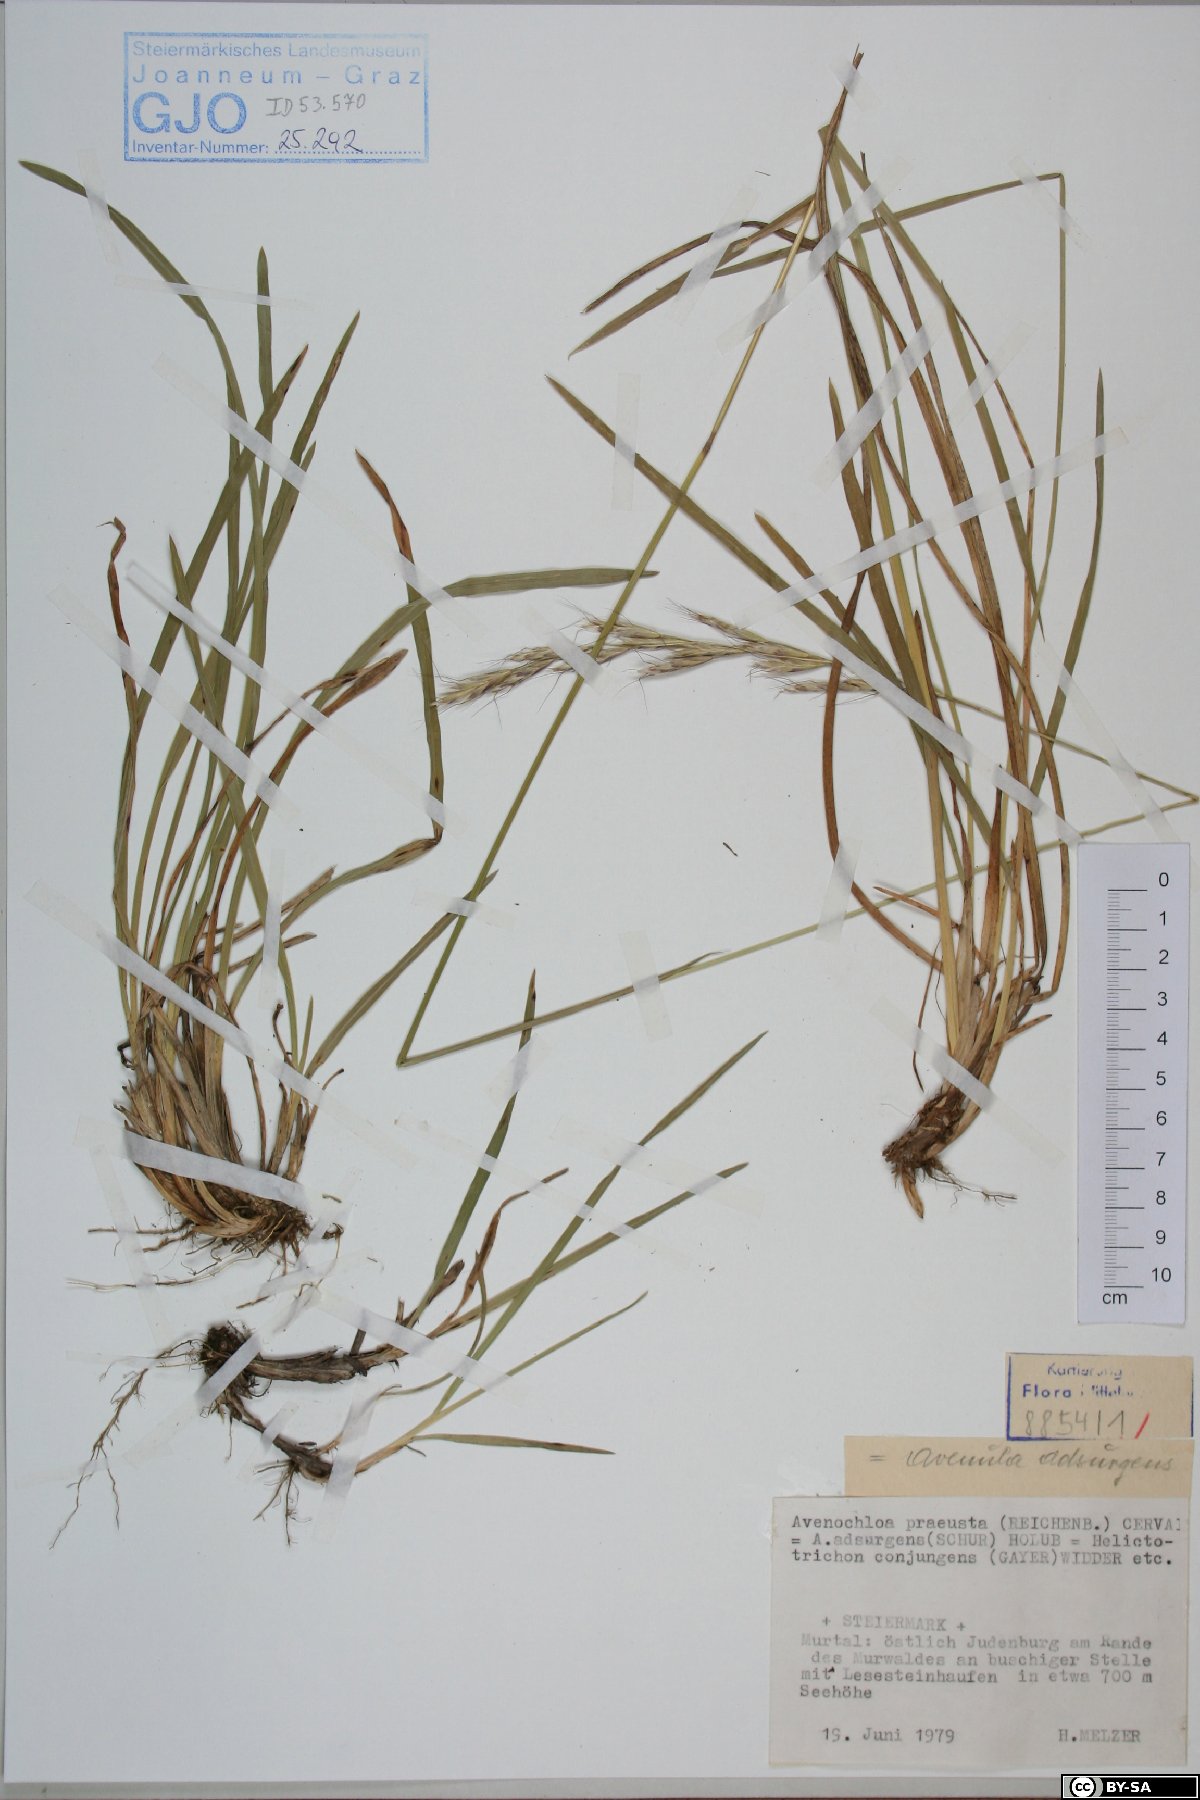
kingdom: Plantae
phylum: Tracheophyta
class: Liliopsida
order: Poales
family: Poaceae
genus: Helictochloa
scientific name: Helictochloa praeusta
